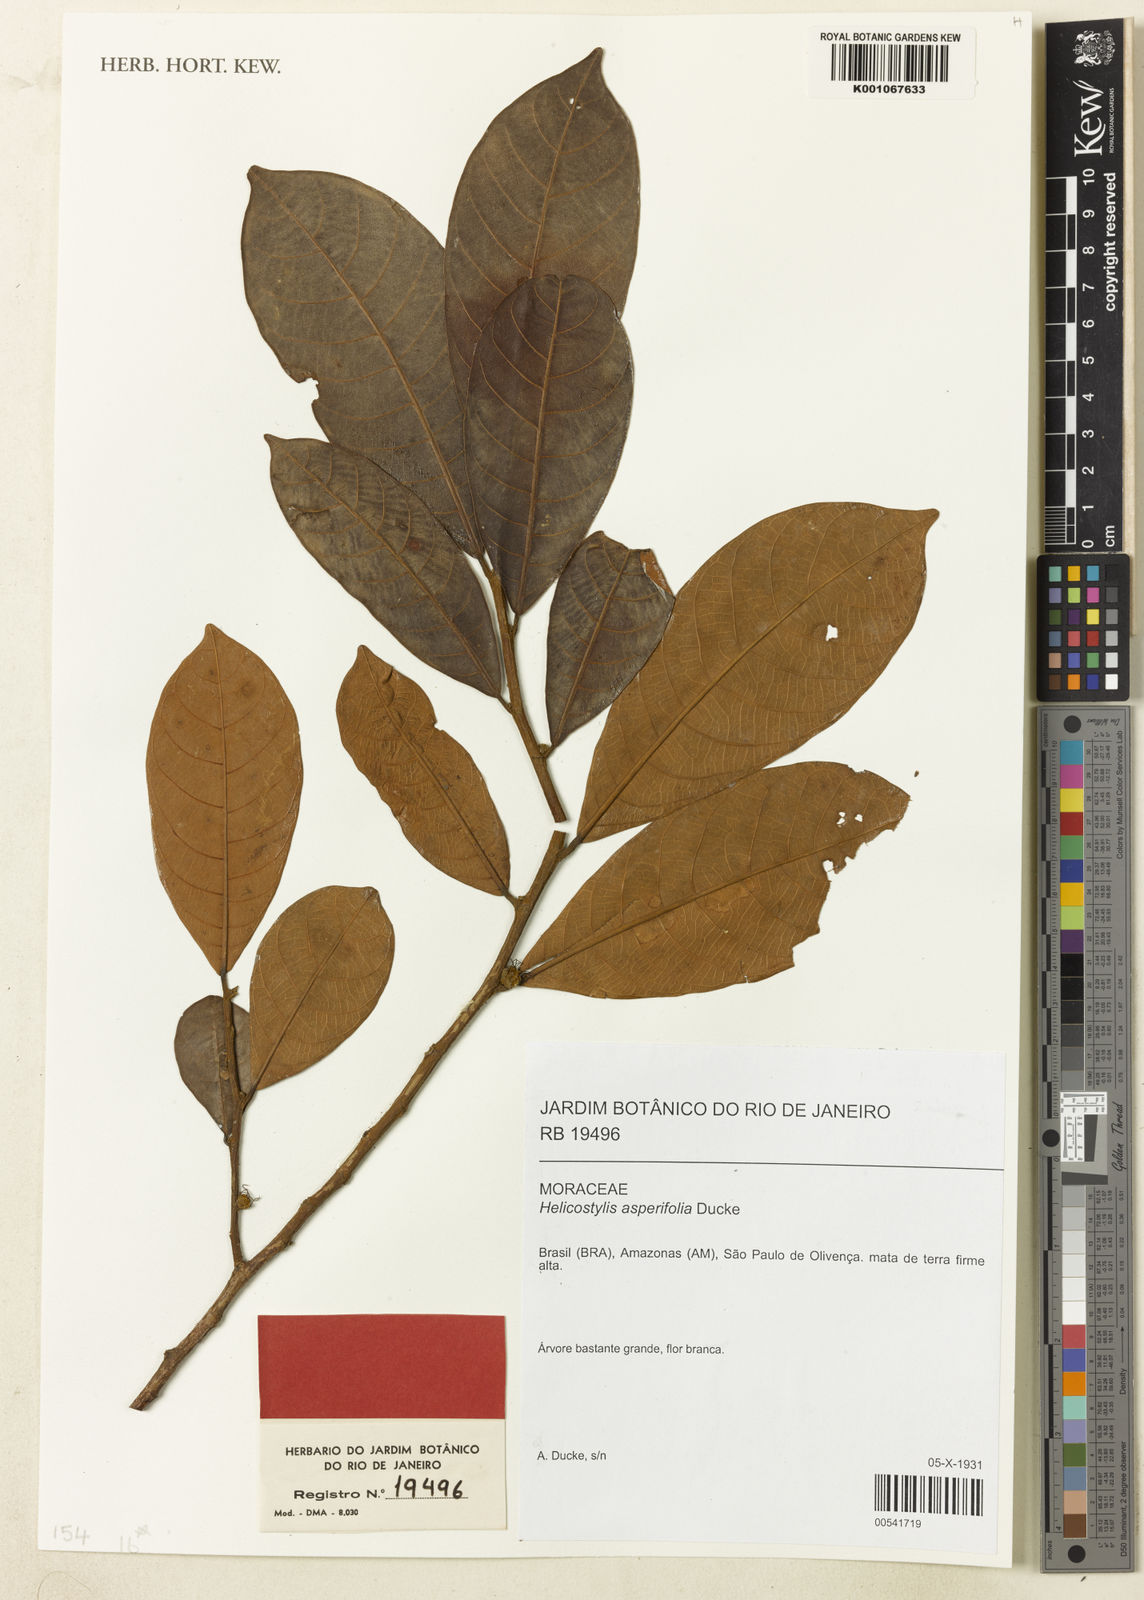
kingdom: Plantae
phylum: Tracheophyta
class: Magnoliopsida
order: Rosales
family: Moraceae
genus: Helicostylis
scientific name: Helicostylis scabra
